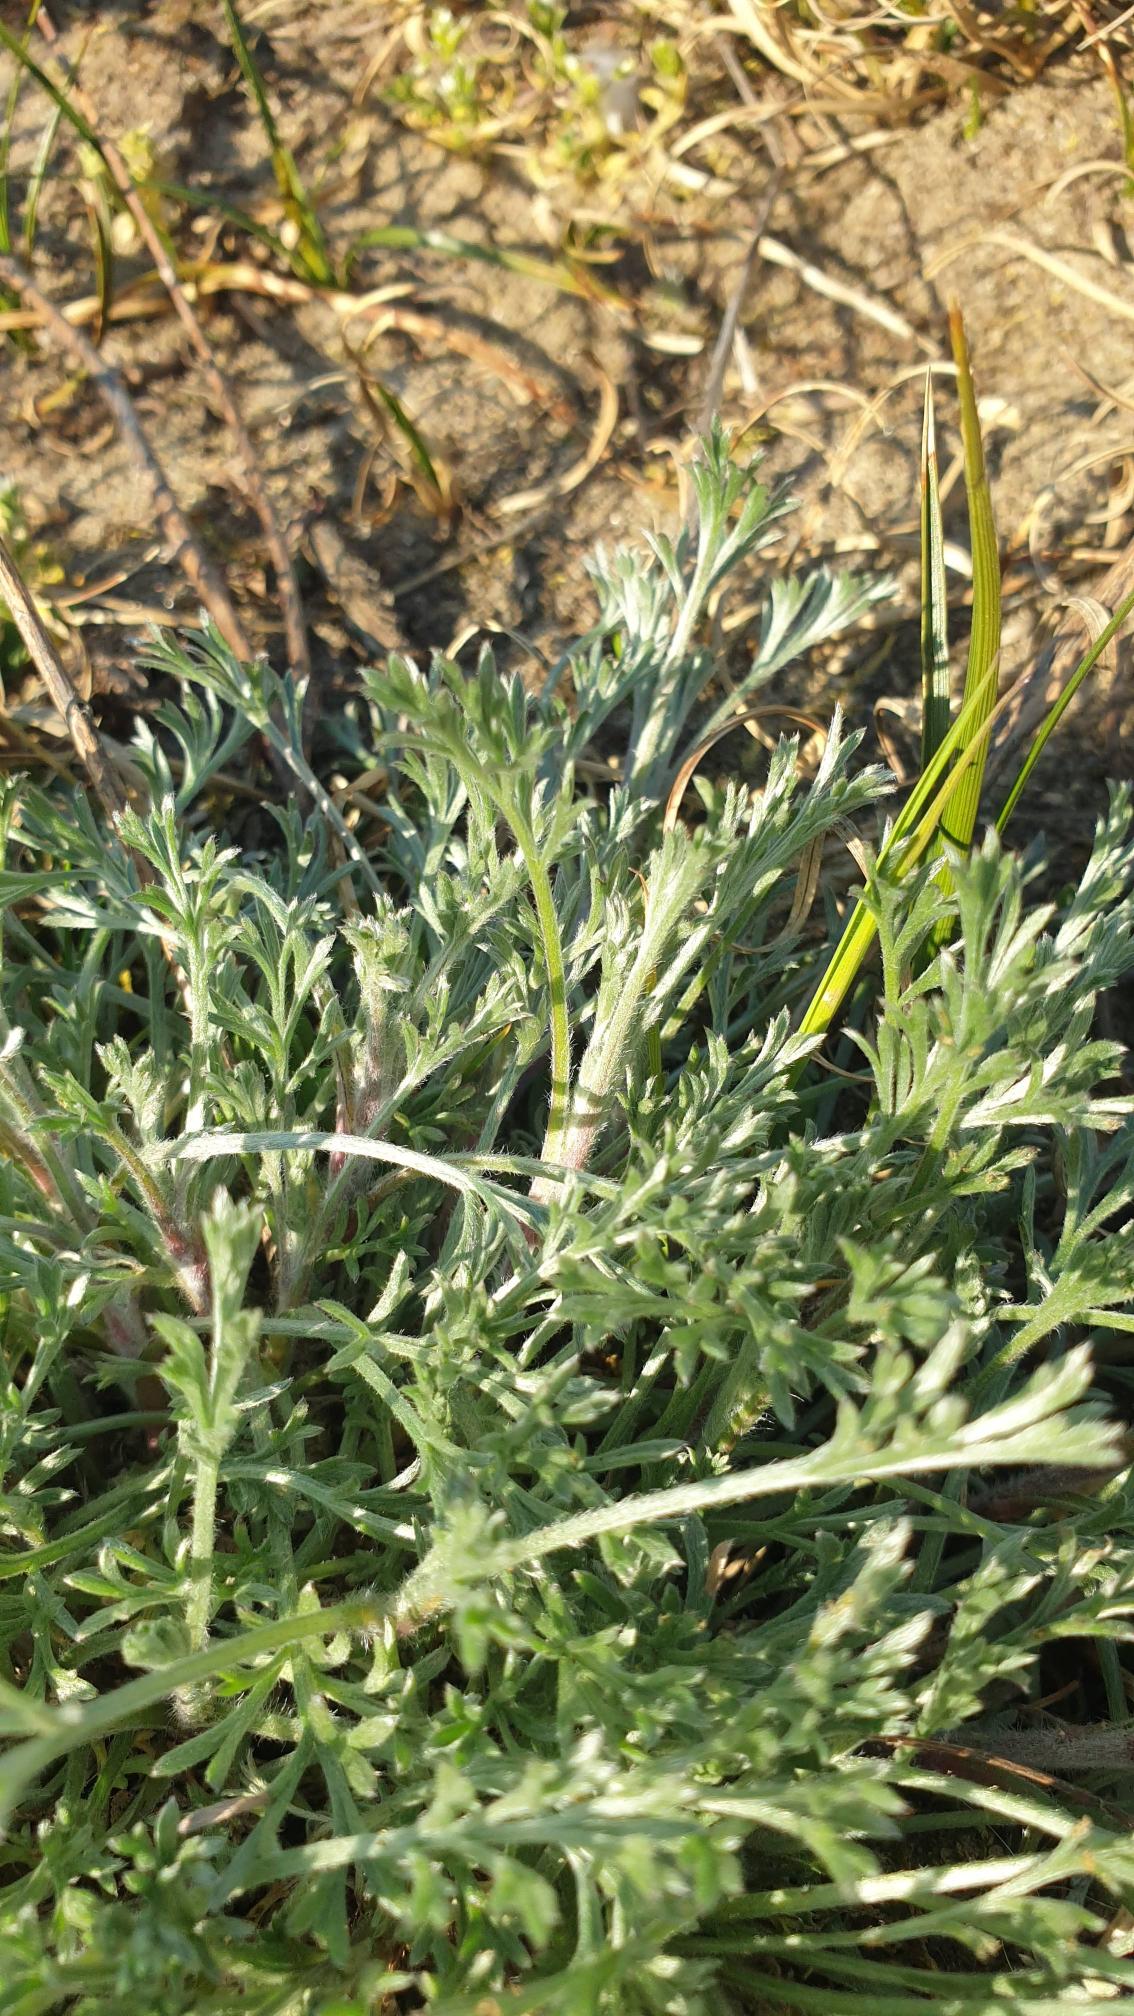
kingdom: Plantae
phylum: Tracheophyta
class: Magnoliopsida
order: Asterales
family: Asteraceae
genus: Artemisia
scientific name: Artemisia campestris
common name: Mark-bynke
